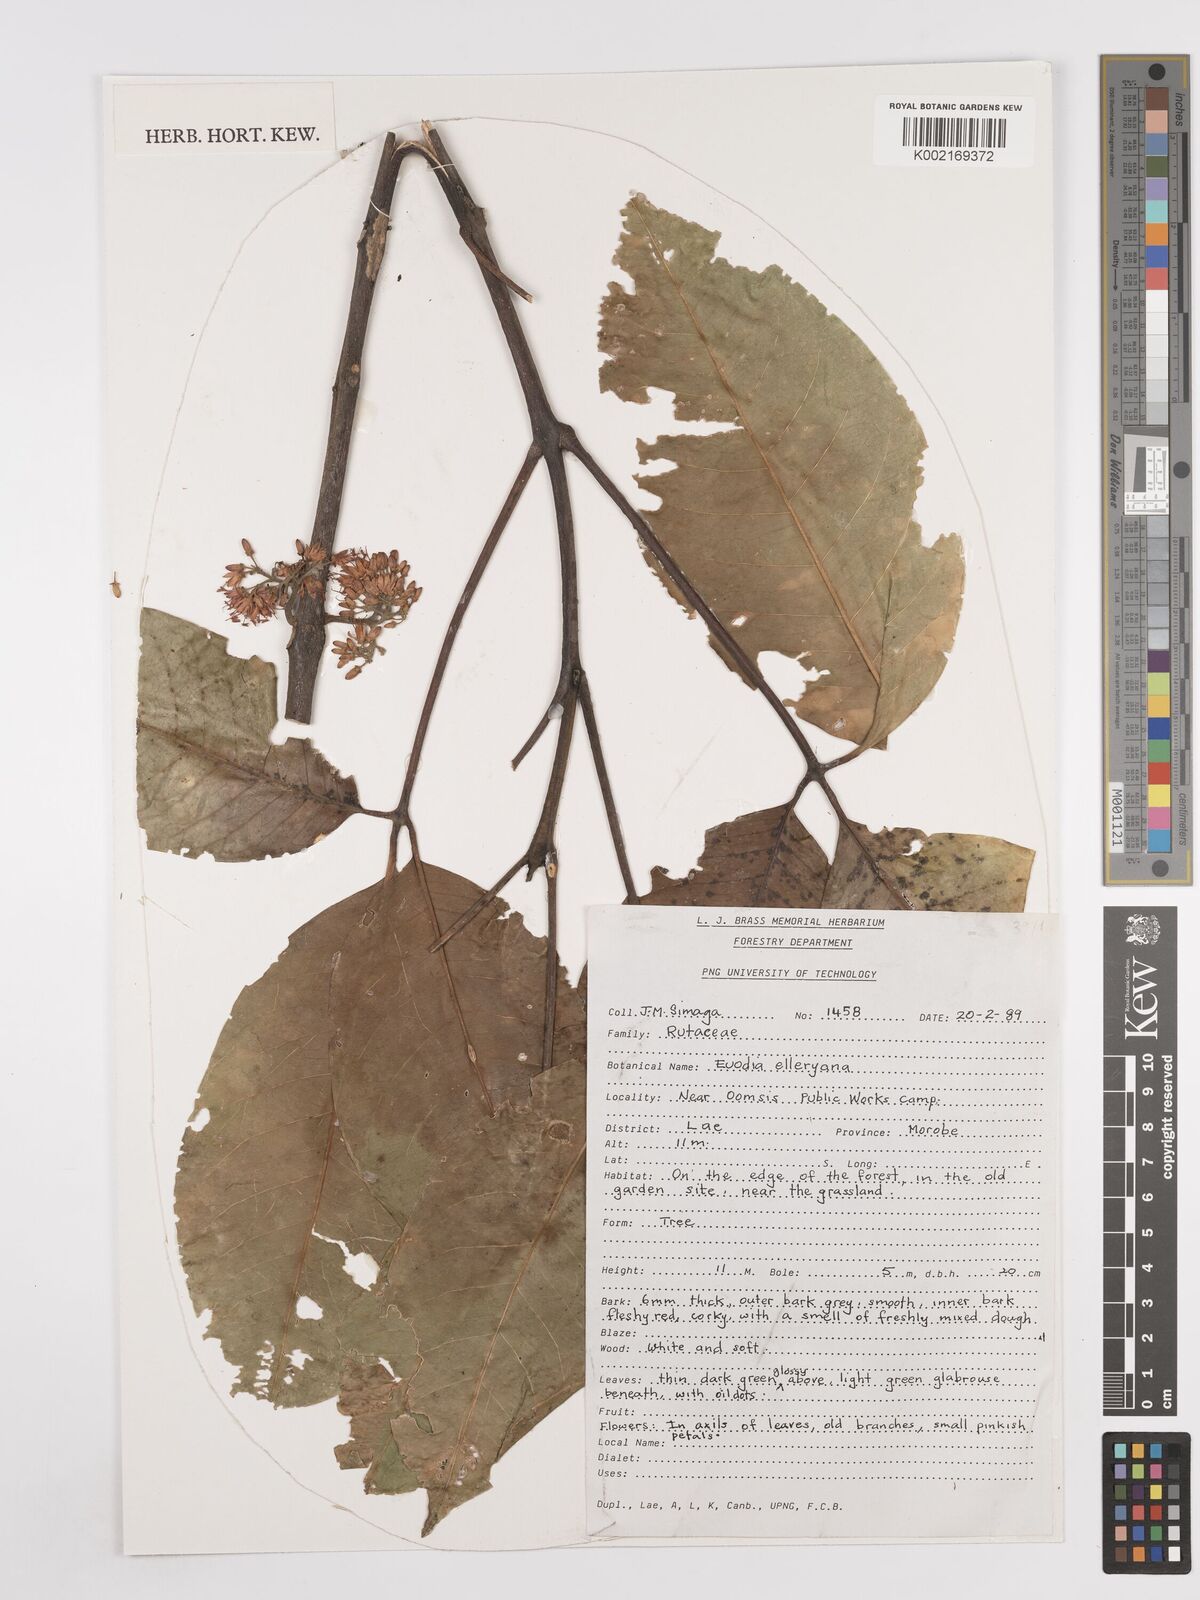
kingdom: Plantae
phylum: Tracheophyta
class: Magnoliopsida
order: Sapindales
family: Rutaceae
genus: Melicope
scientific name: Melicope elleryana
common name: Pink euodia
